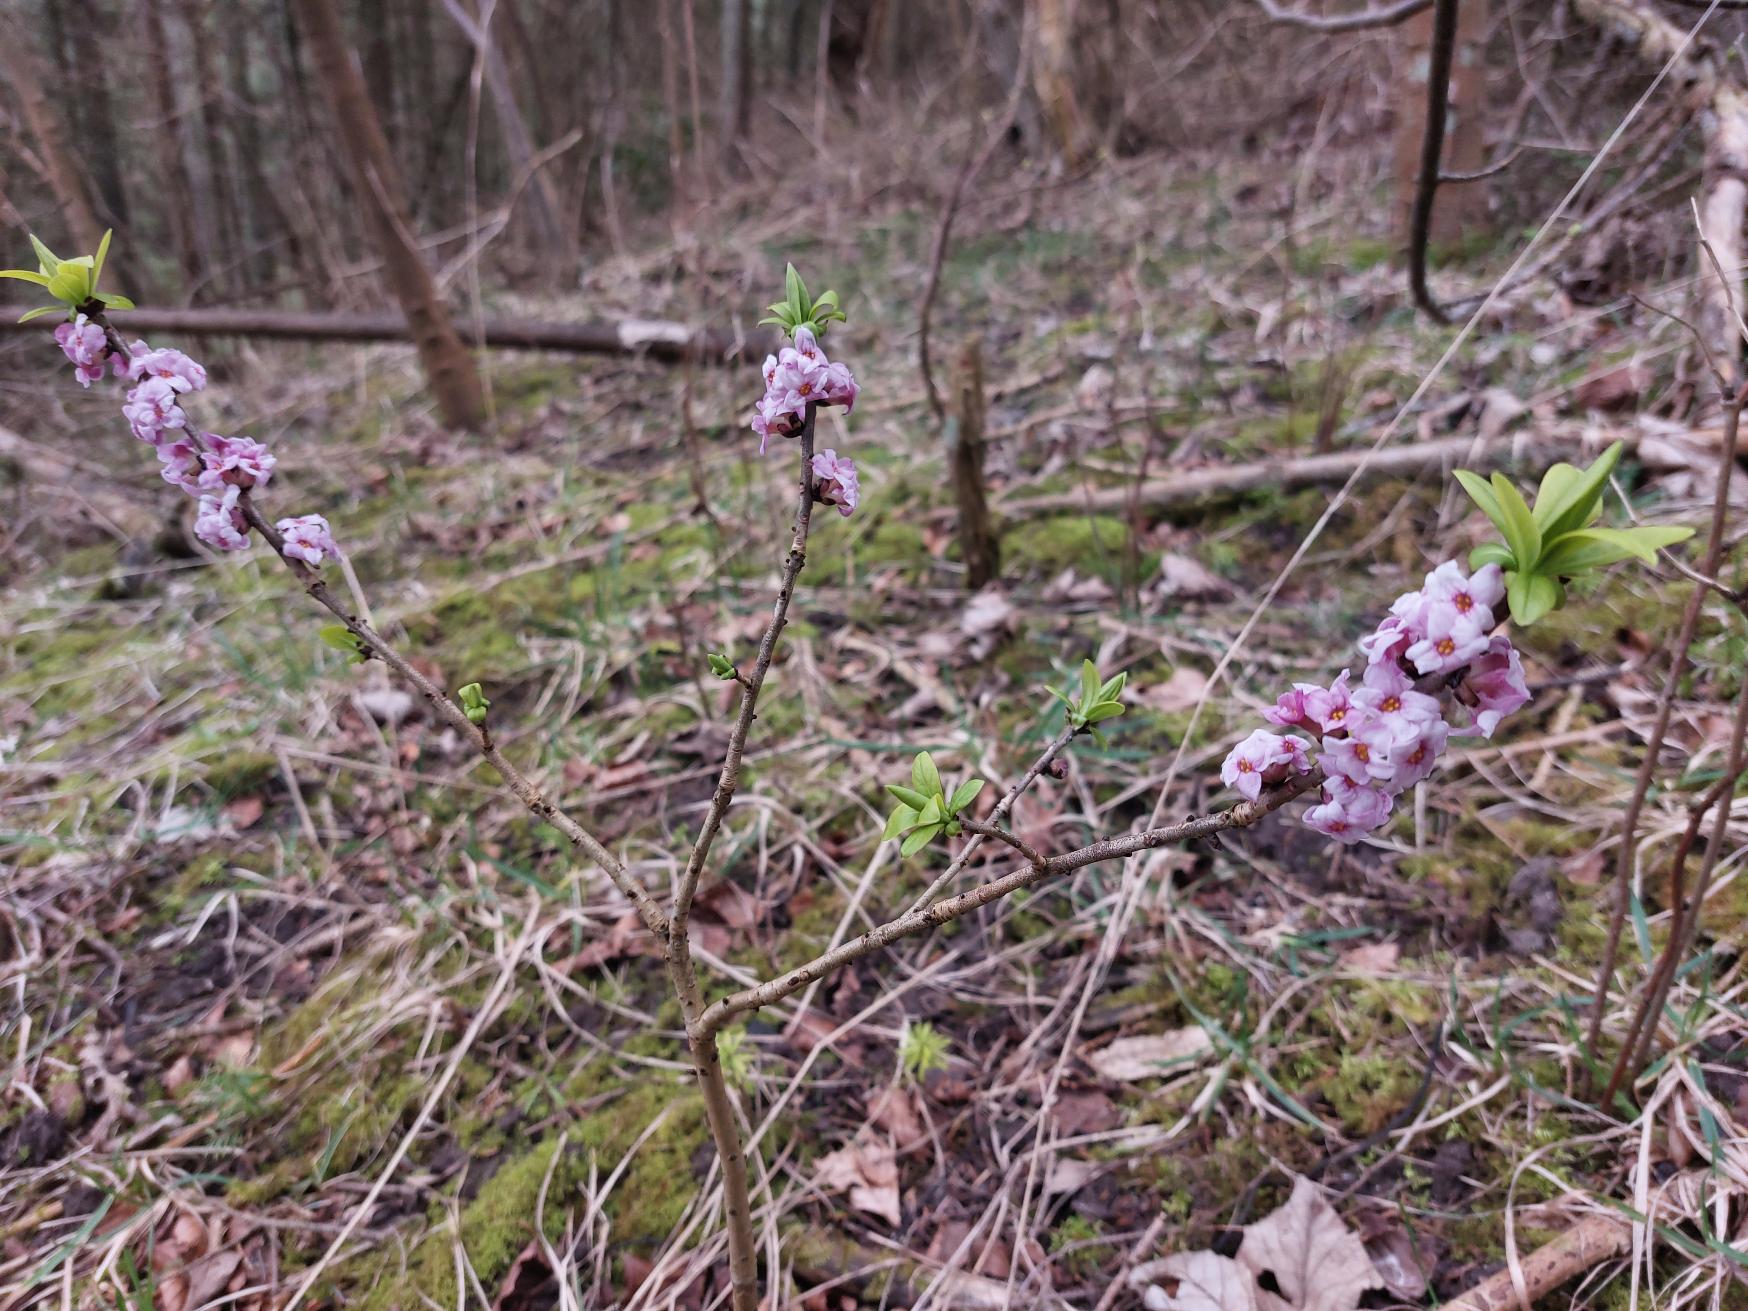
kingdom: Plantae
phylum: Tracheophyta
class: Magnoliopsida
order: Malvales
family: Thymelaeaceae
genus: Daphne
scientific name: Daphne mezereum
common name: Pebertræ
